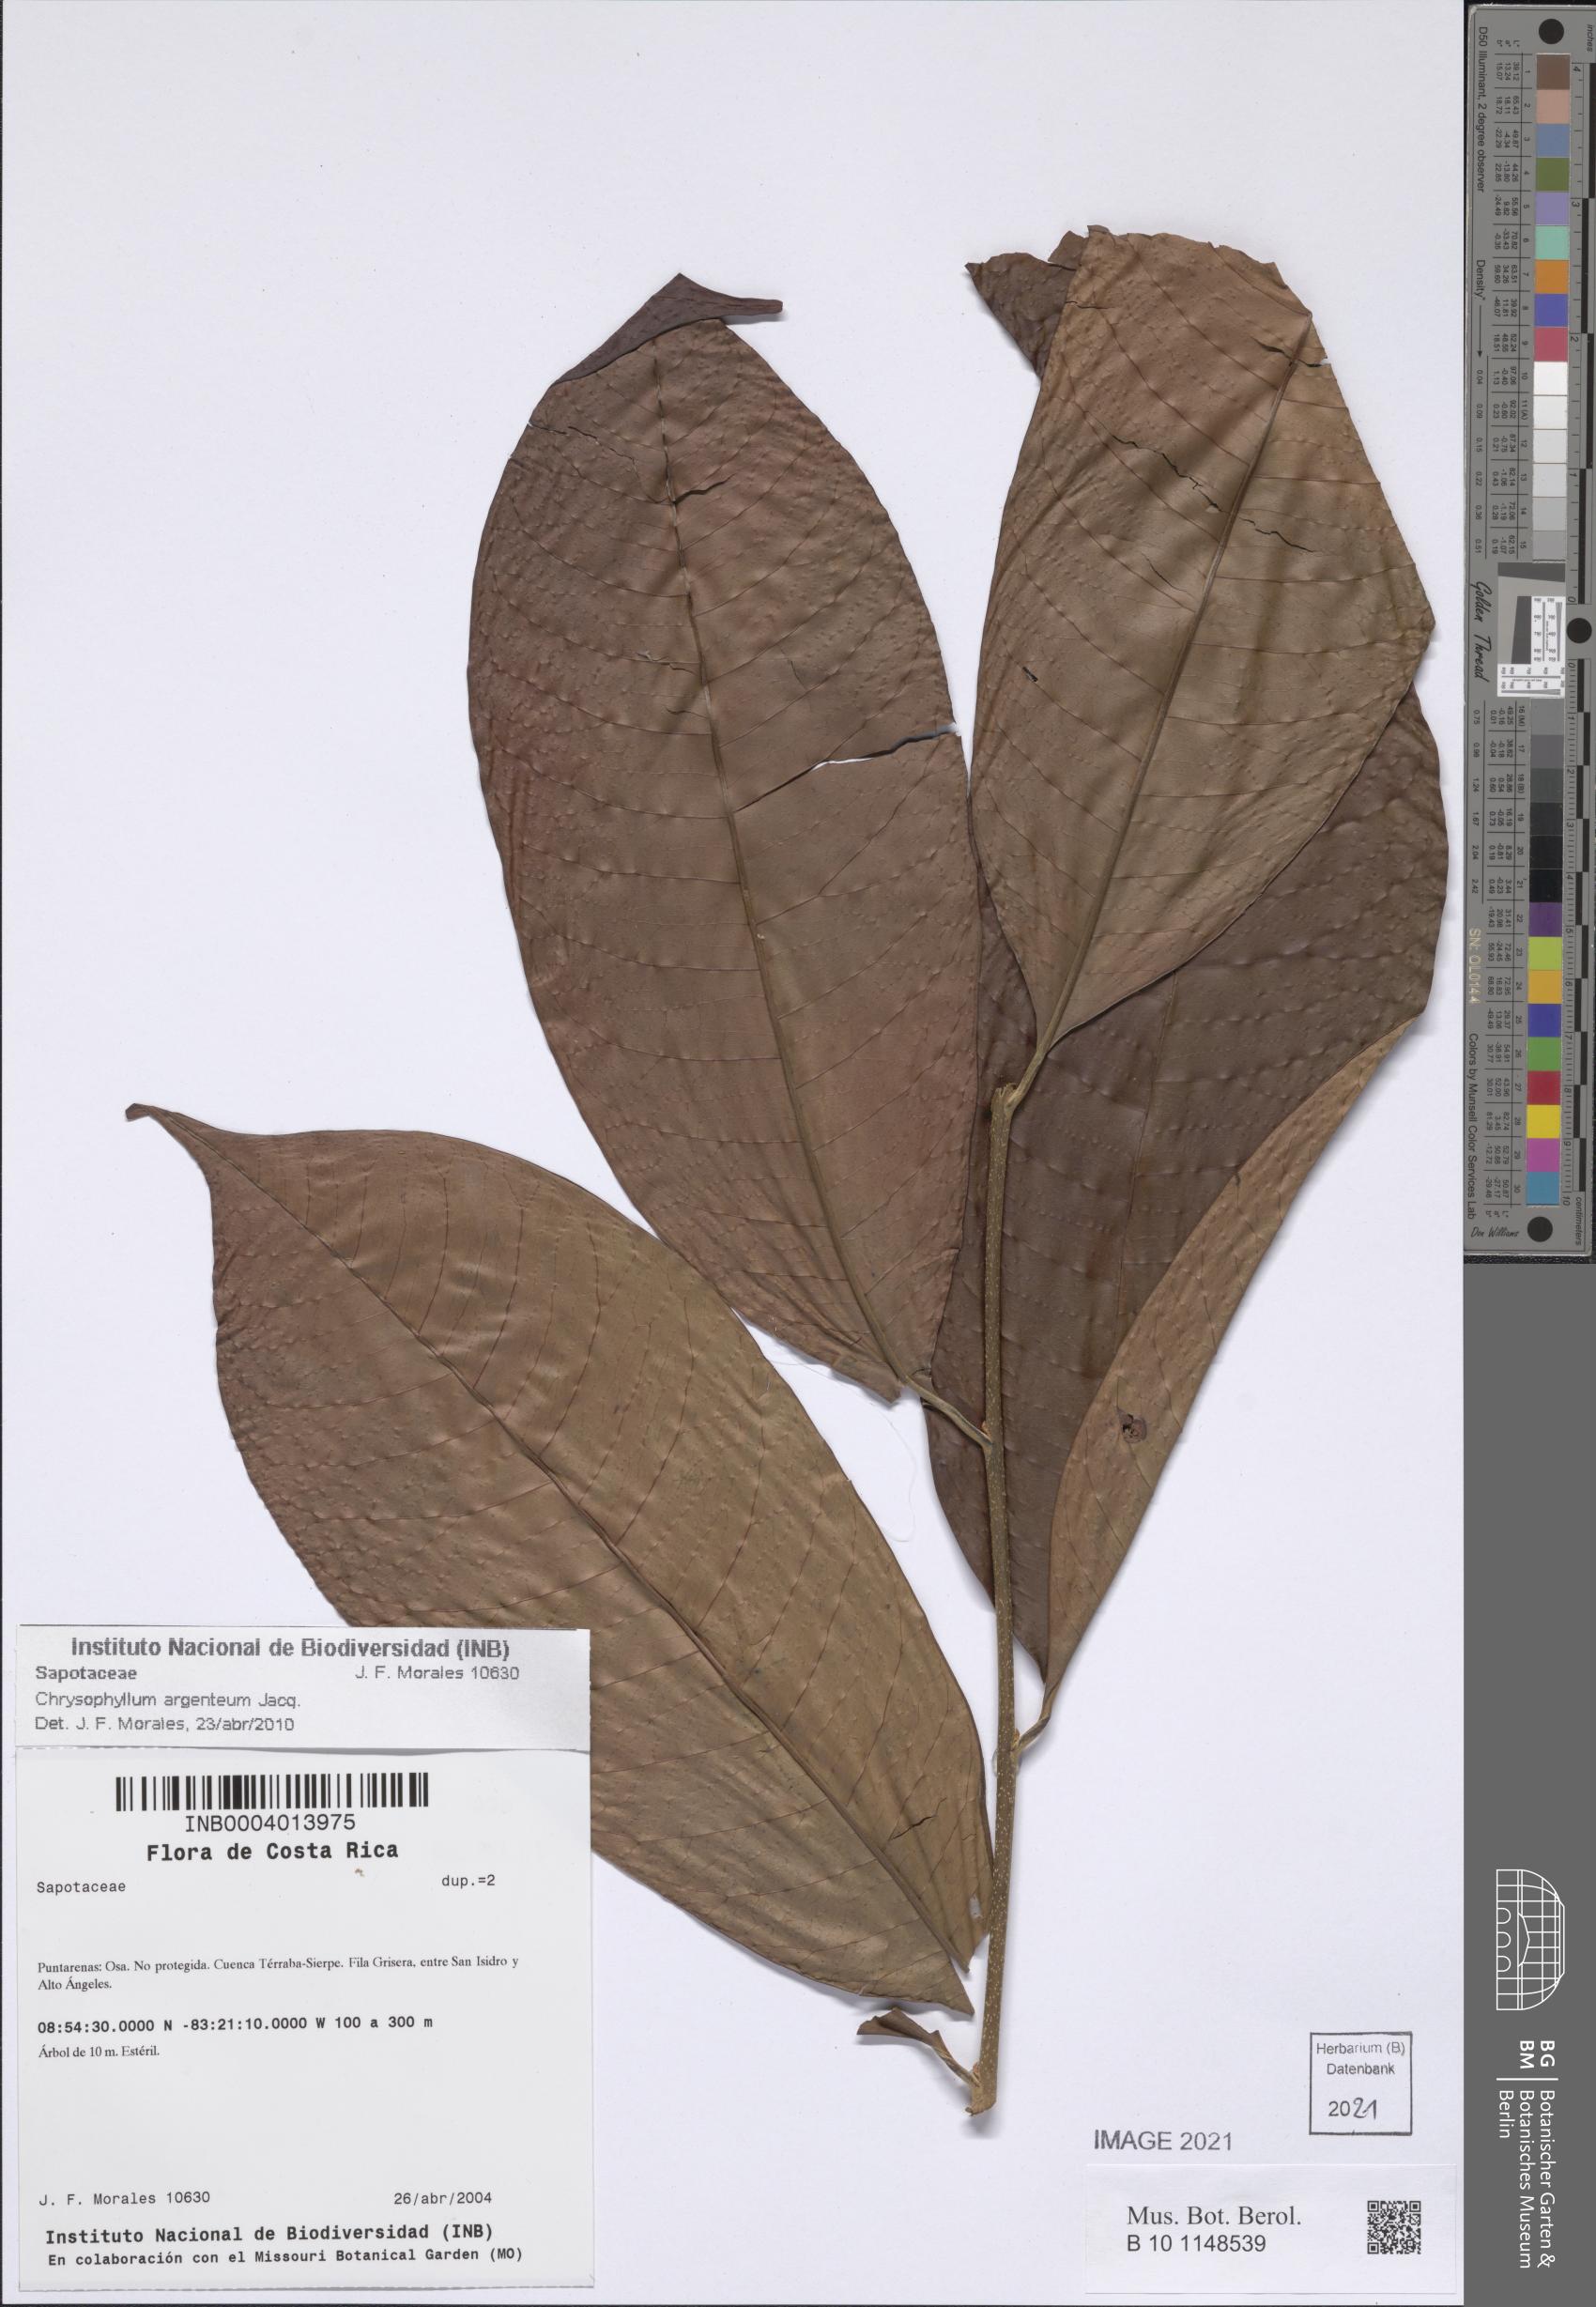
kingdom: Plantae
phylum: Tracheophyta
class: Magnoliopsida
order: Ericales
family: Sapotaceae
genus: Chrysophyllum
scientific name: Chrysophyllum argenteum
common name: Smooth star apple
